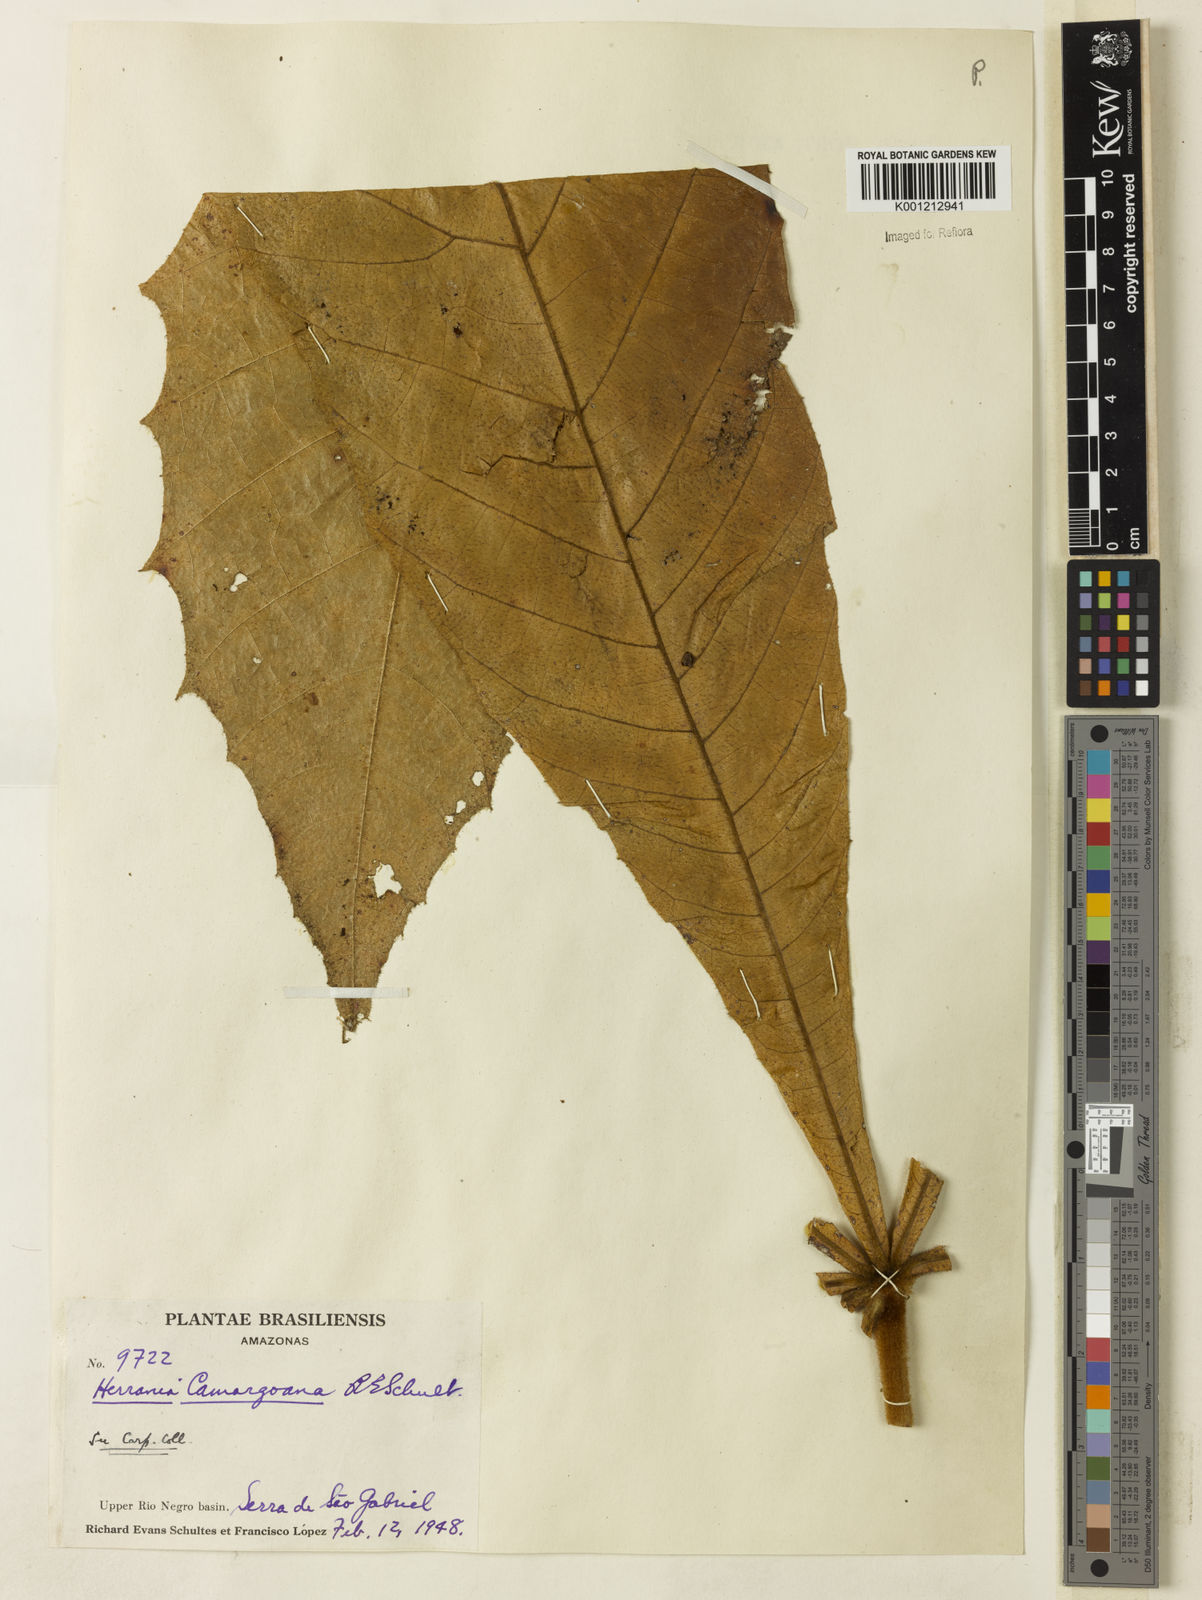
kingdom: Plantae
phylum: Tracheophyta
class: Magnoliopsida
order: Malvales
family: Malvaceae
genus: Herrania
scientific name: Herrania camargoana
